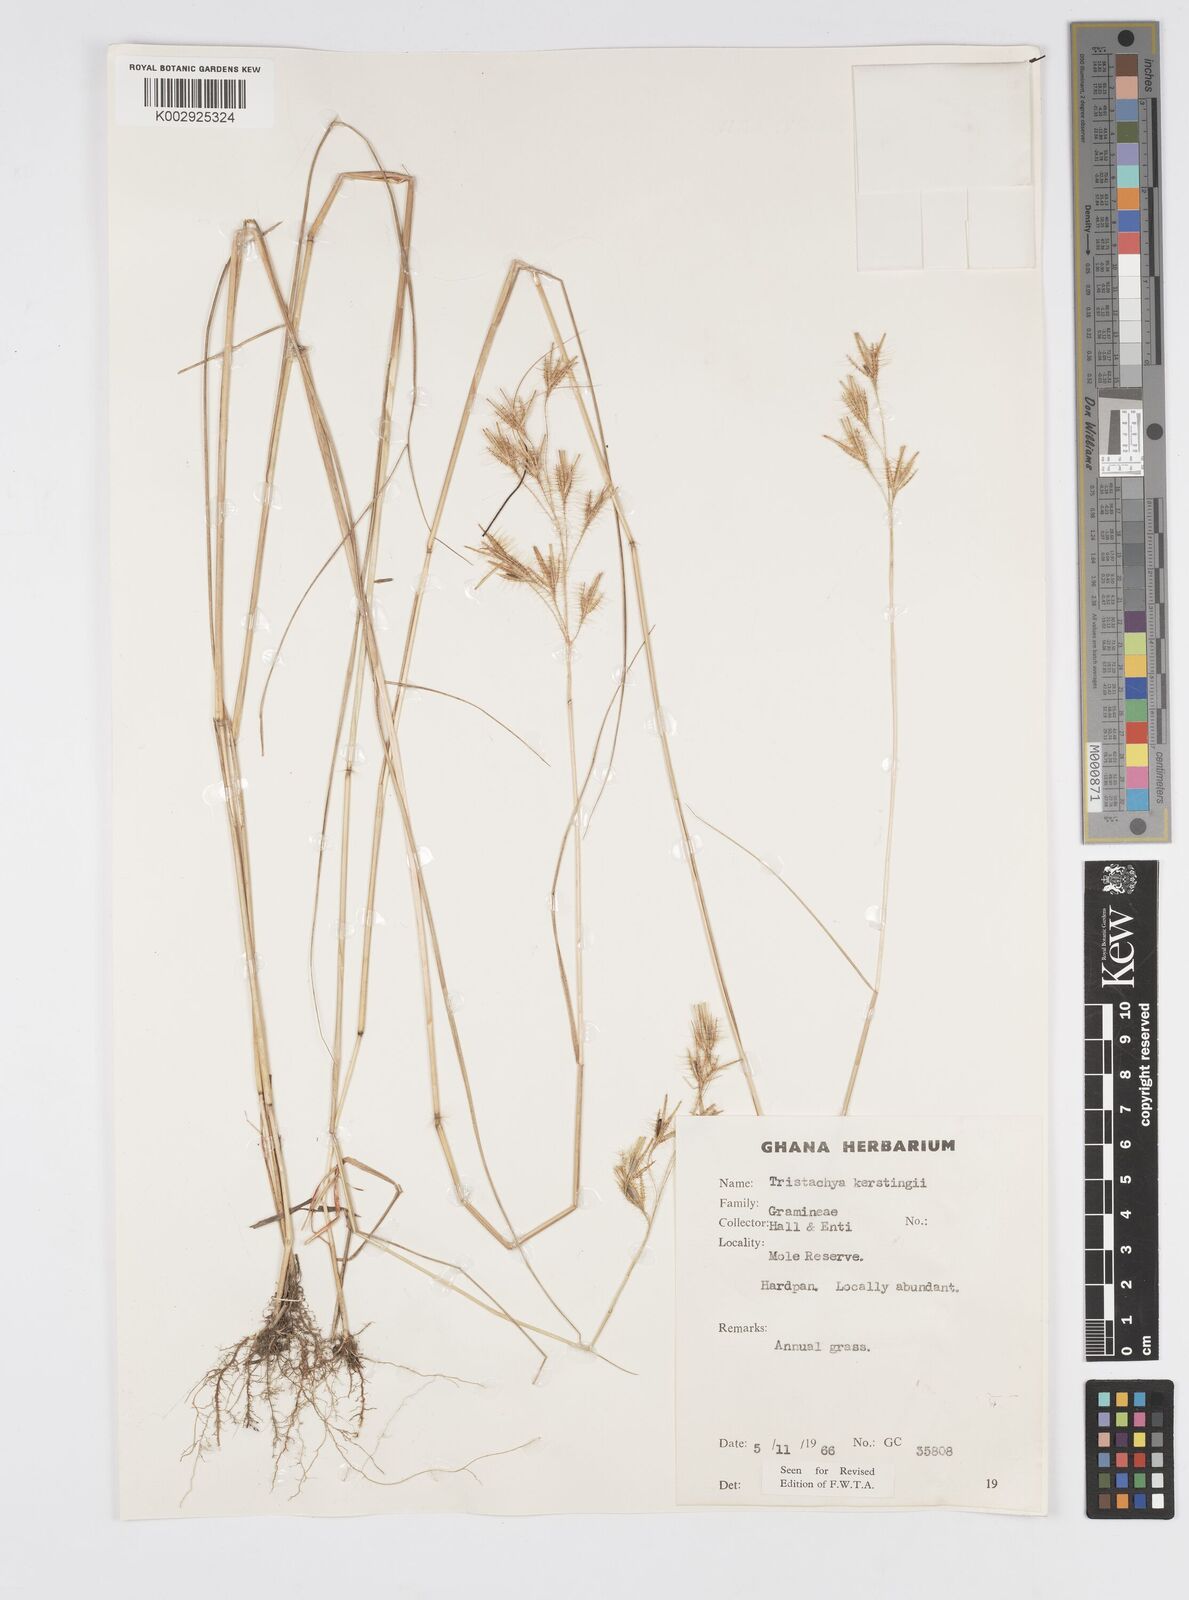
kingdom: Plantae
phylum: Tracheophyta
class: Liliopsida
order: Poales
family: Poaceae
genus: Loudetiopsis
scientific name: Loudetiopsis kerstingii
